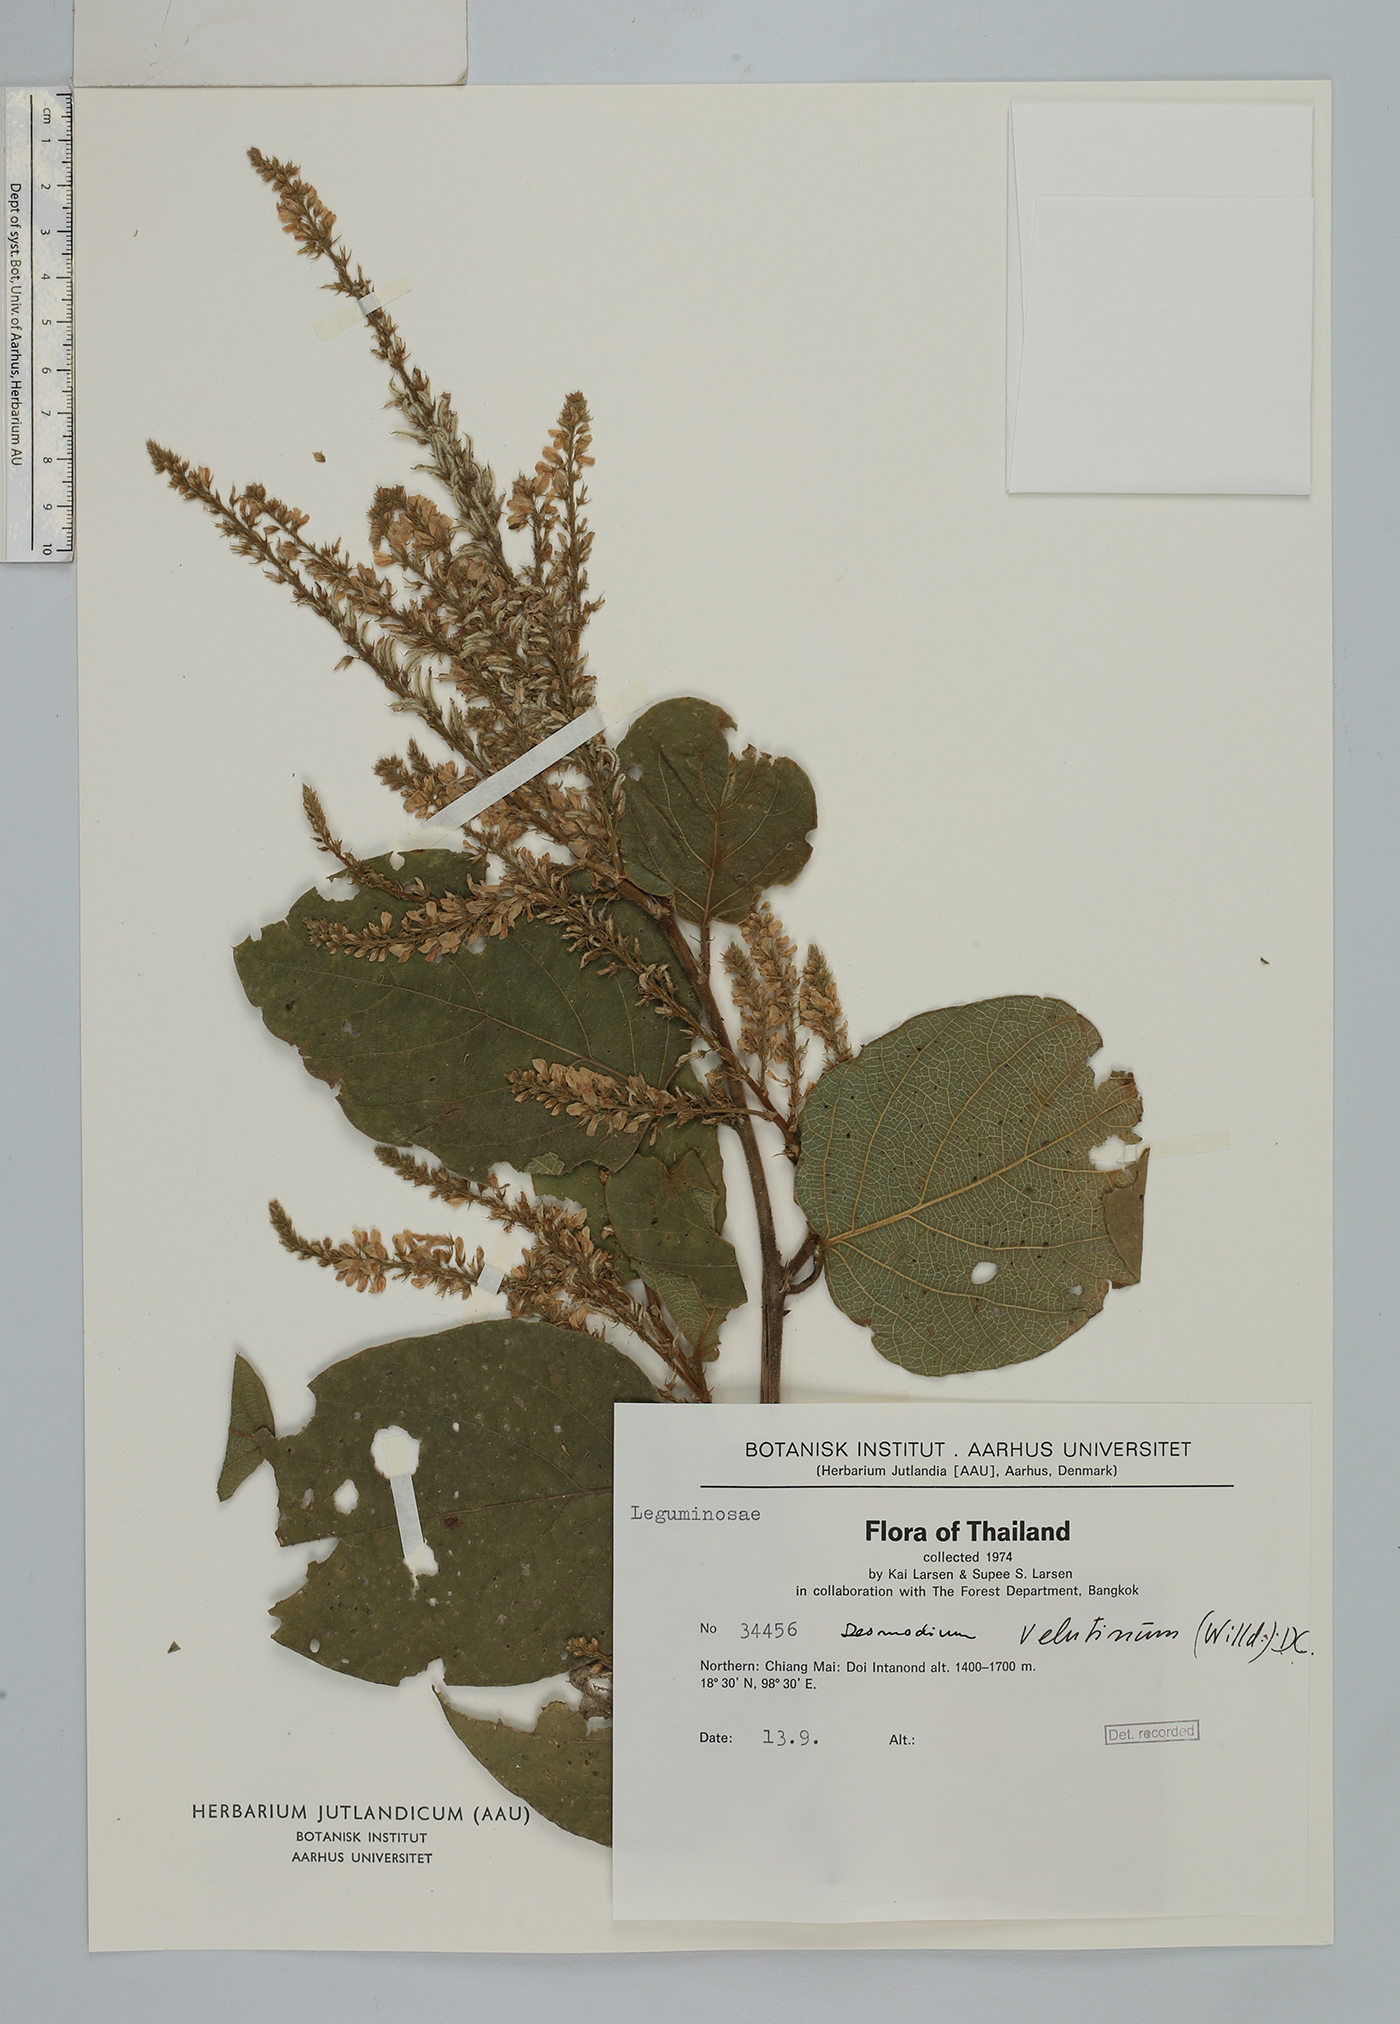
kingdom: Plantae
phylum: Tracheophyta
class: Magnoliopsida
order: Fabales
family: Fabaceae
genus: Polhillides
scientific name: Polhillides velutina
